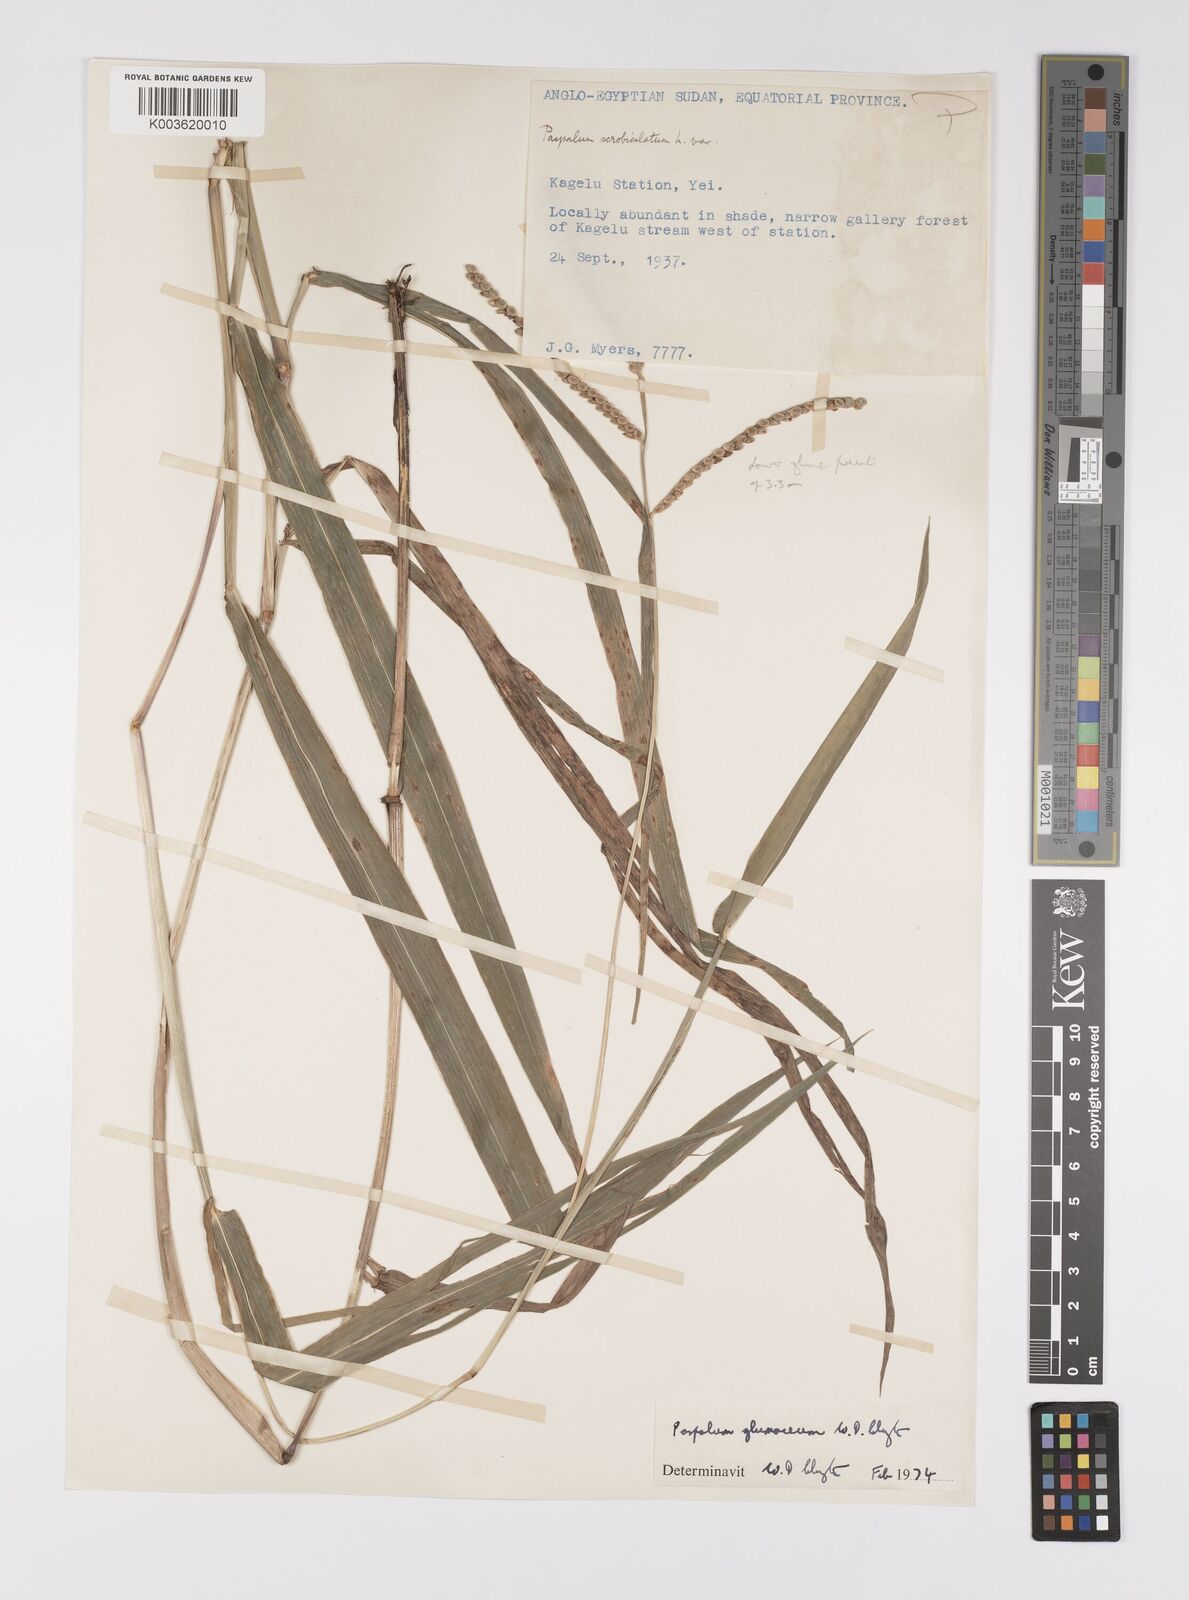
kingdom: Plantae
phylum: Tracheophyta
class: Liliopsida
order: Poales
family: Poaceae
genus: Paspalum
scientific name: Paspalum glumaceum
